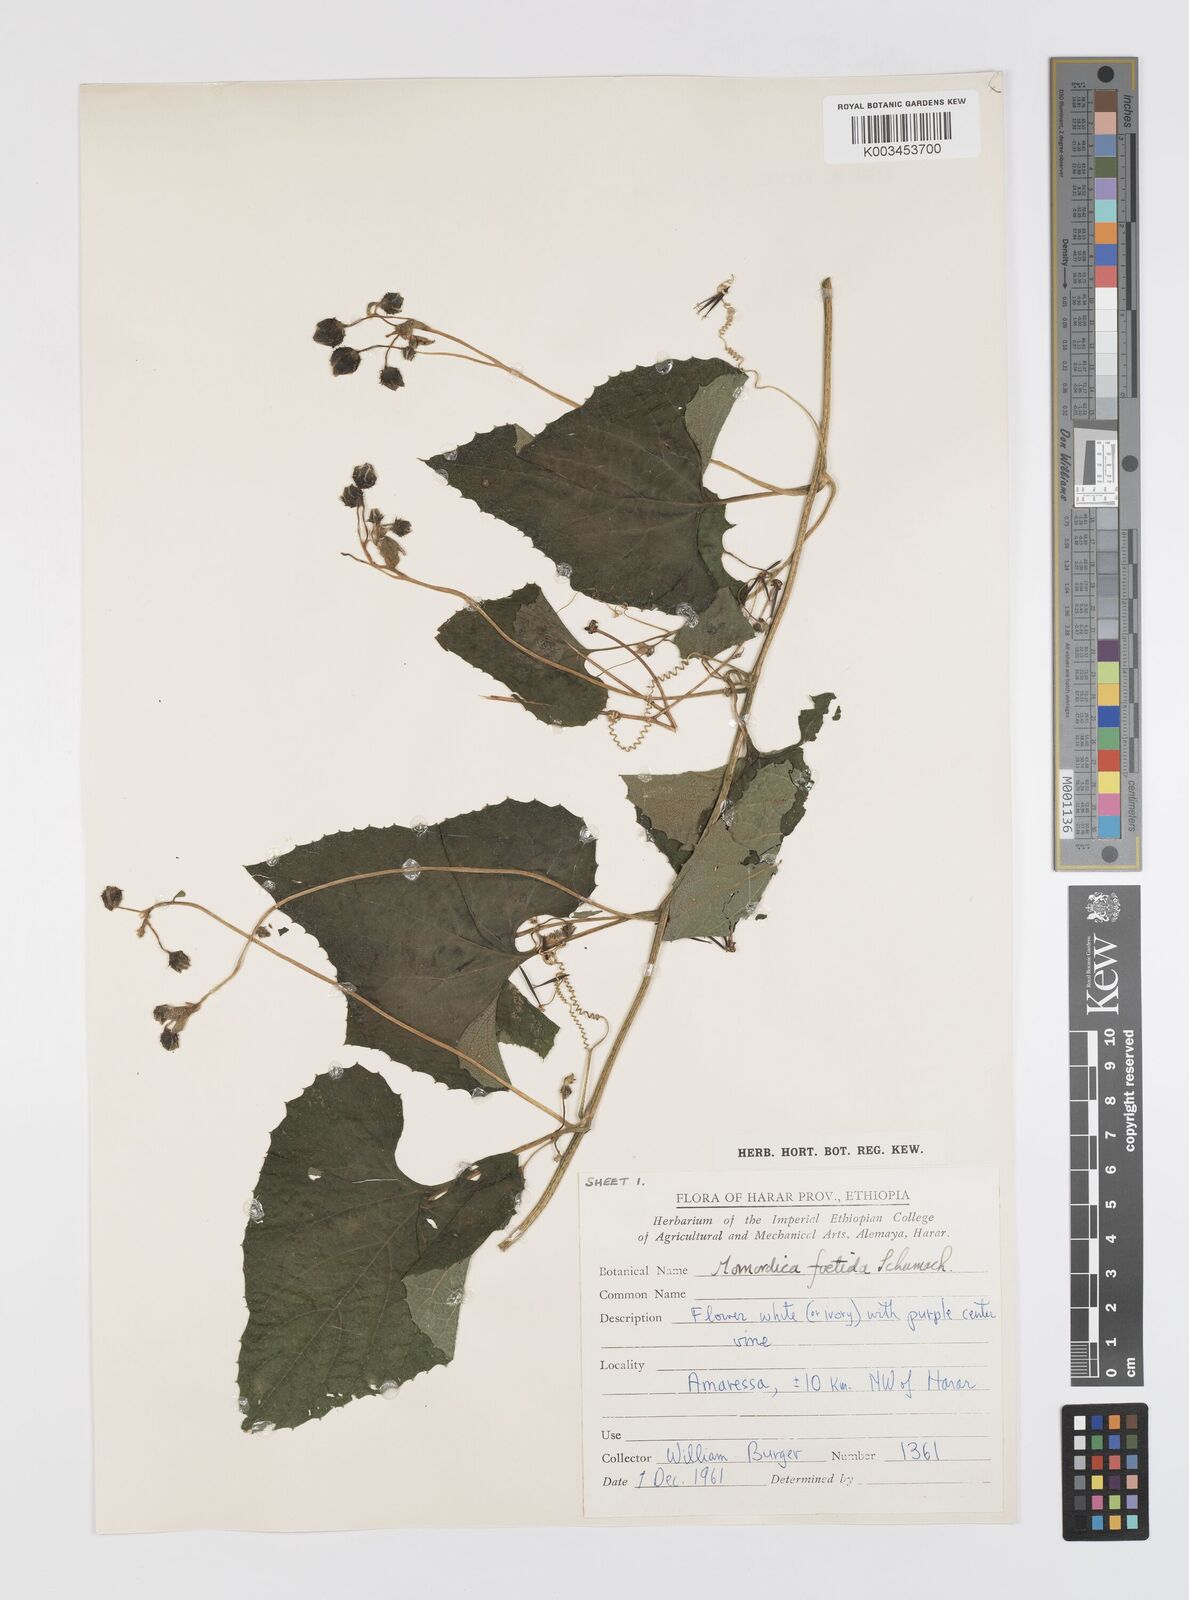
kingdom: Plantae
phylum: Tracheophyta
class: Magnoliopsida
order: Cucurbitales
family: Cucurbitaceae
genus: Momordica
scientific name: Momordica foetida
